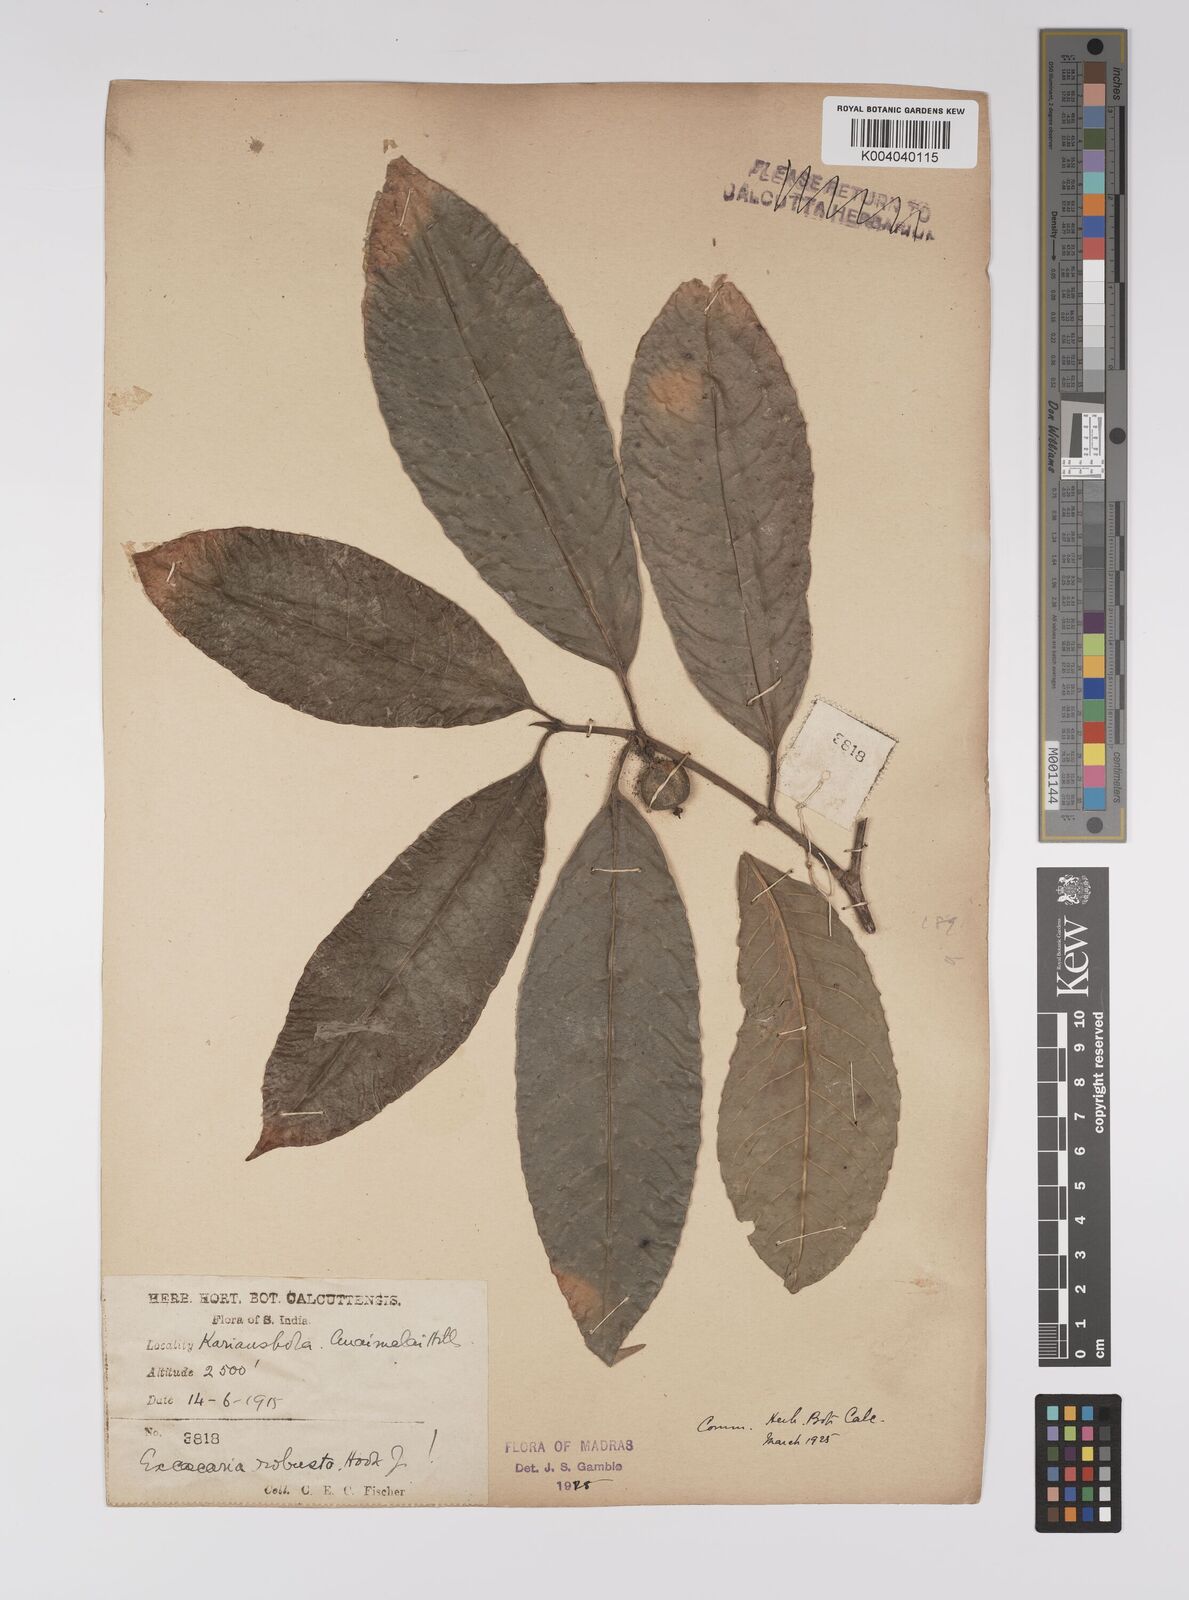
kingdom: Plantae
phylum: Tracheophyta
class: Magnoliopsida
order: Malpighiales
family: Euphorbiaceae
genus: Excoecaria
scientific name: Excoecaria oppositifolia
